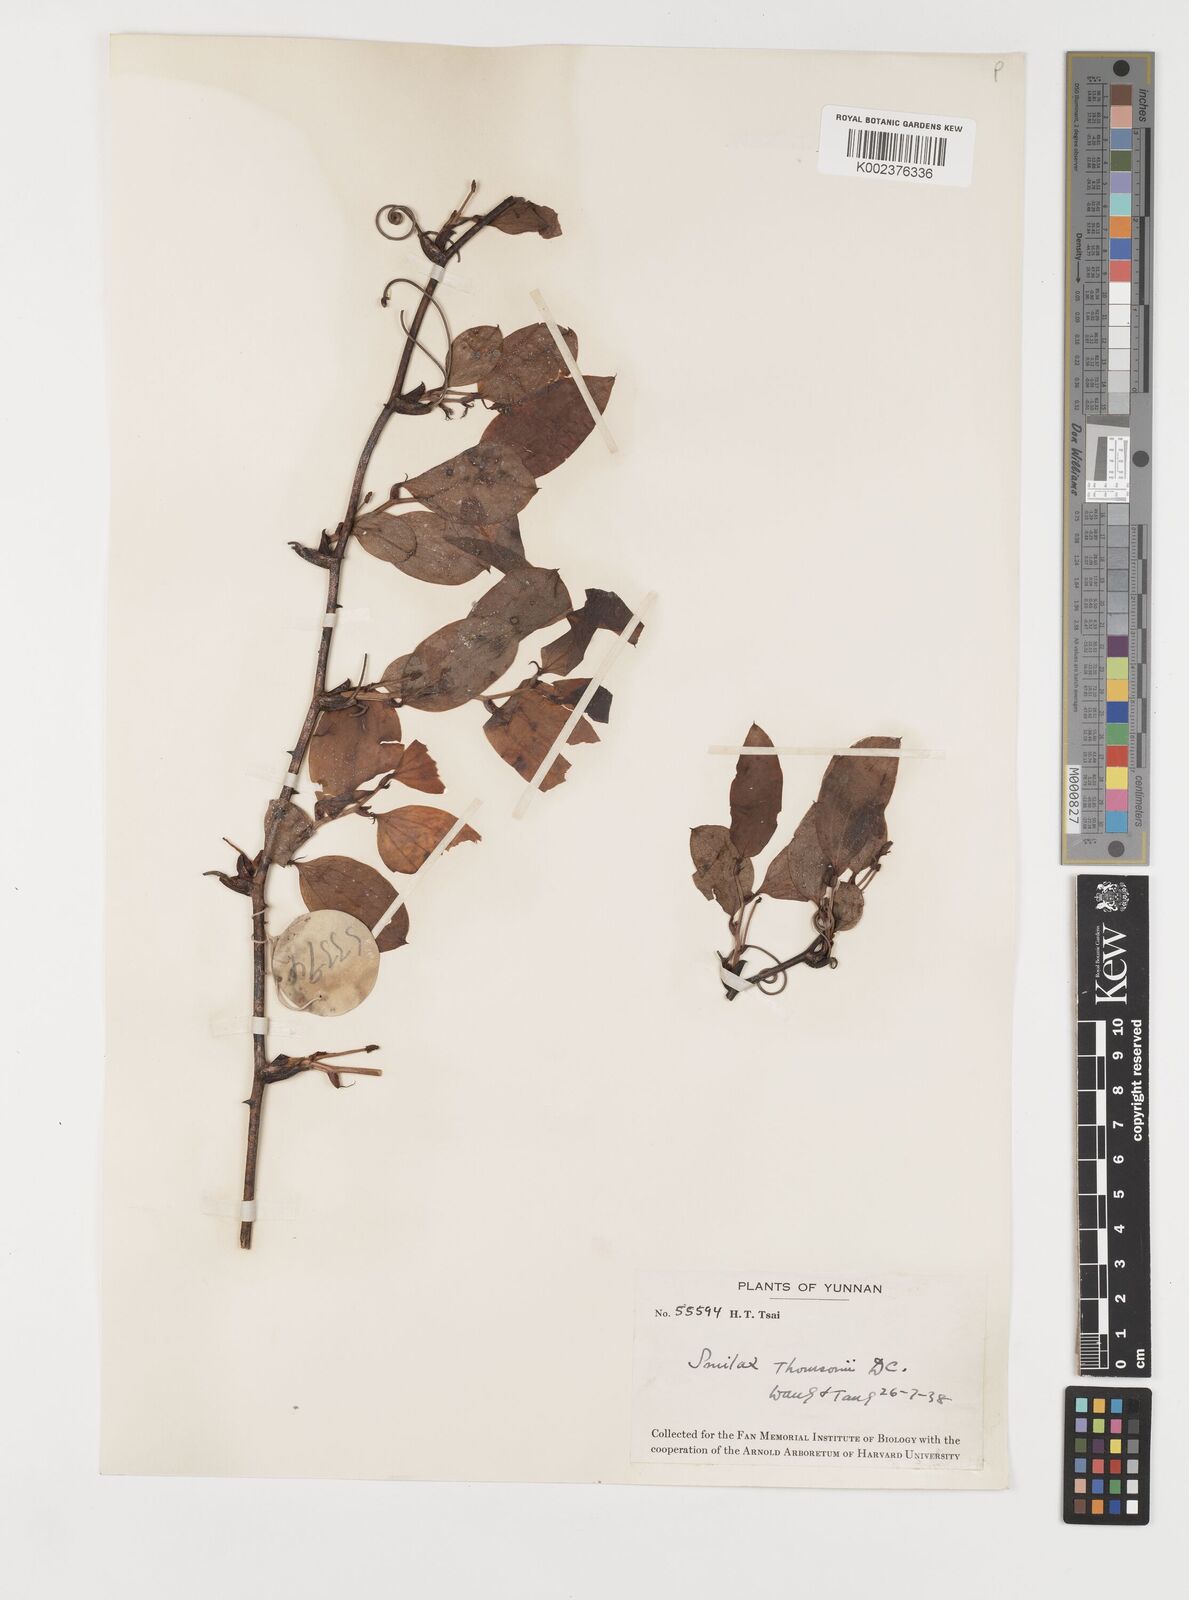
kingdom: Plantae
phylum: Tracheophyta
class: Liliopsida
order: Liliales
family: Smilacaceae
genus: Smilax
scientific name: Smilax china
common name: Chinaroot
